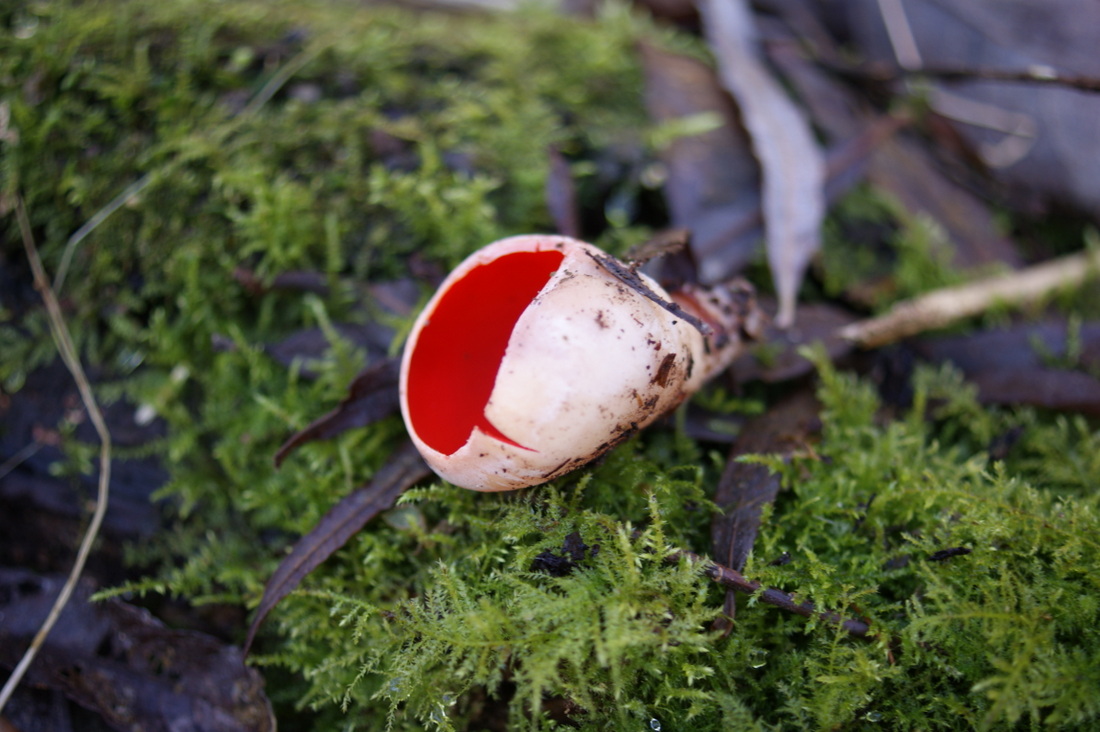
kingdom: Fungi
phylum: Ascomycota
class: Pezizomycetes
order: Pezizales
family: Sarcoscyphaceae
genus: Sarcoscypha
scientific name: Sarcoscypha austriaca
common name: krølhåret pragtbæger
